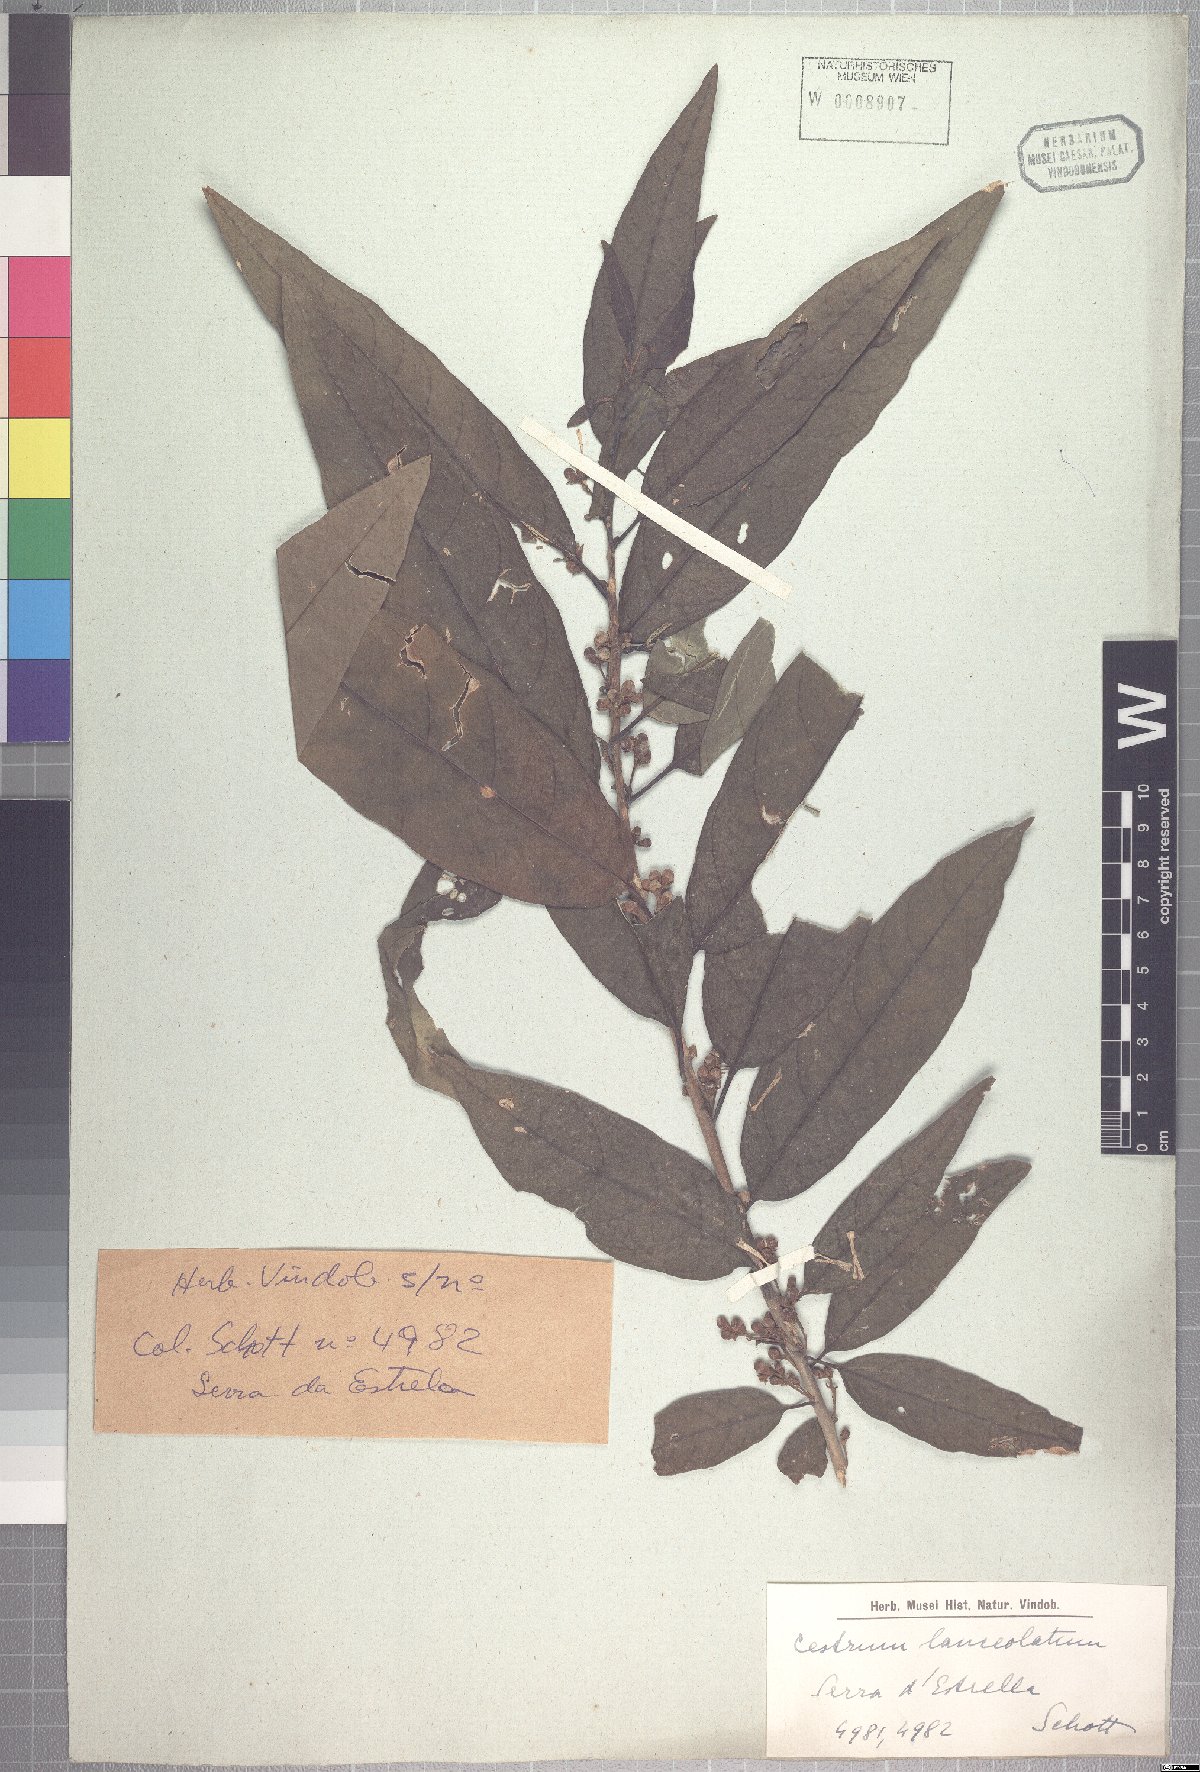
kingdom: Plantae
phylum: Tracheophyta
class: Magnoliopsida
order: Solanales
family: Solanaceae
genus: Cestrum
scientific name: Cestrum bracteatum
